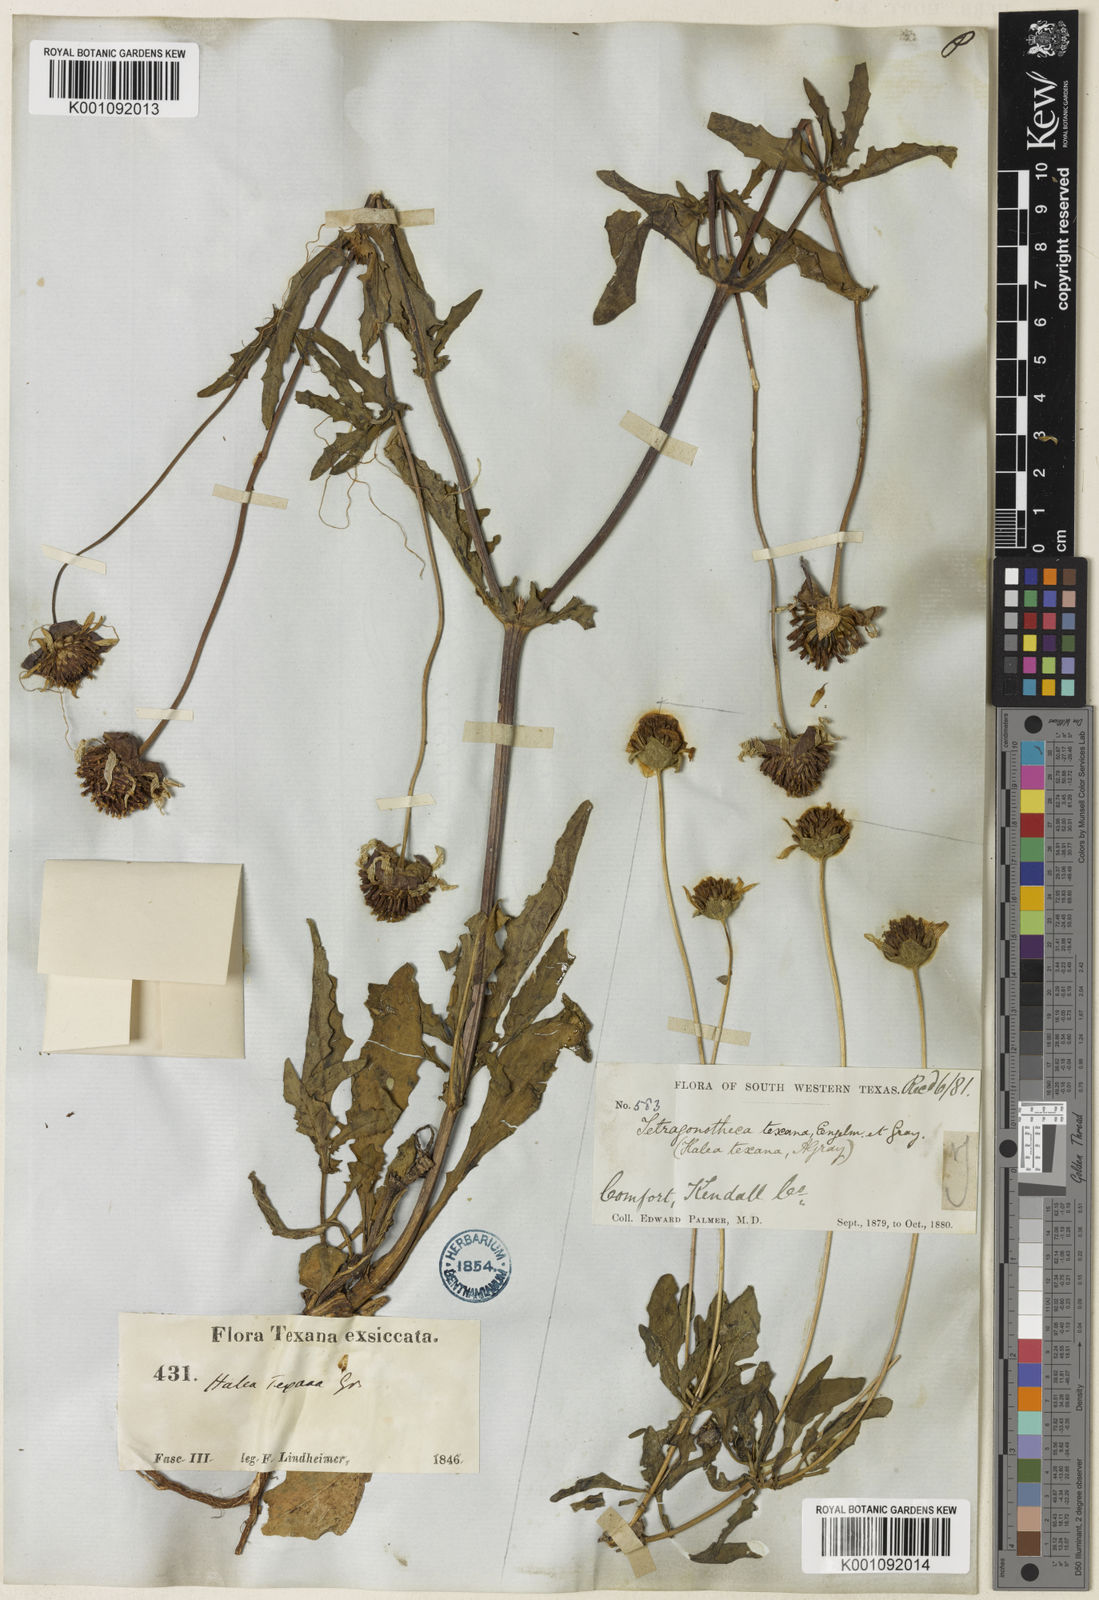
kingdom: Plantae
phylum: Tracheophyta
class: Magnoliopsida
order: Asterales
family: Asteraceae
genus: Tetragonotheca
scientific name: Tetragonotheca texana
